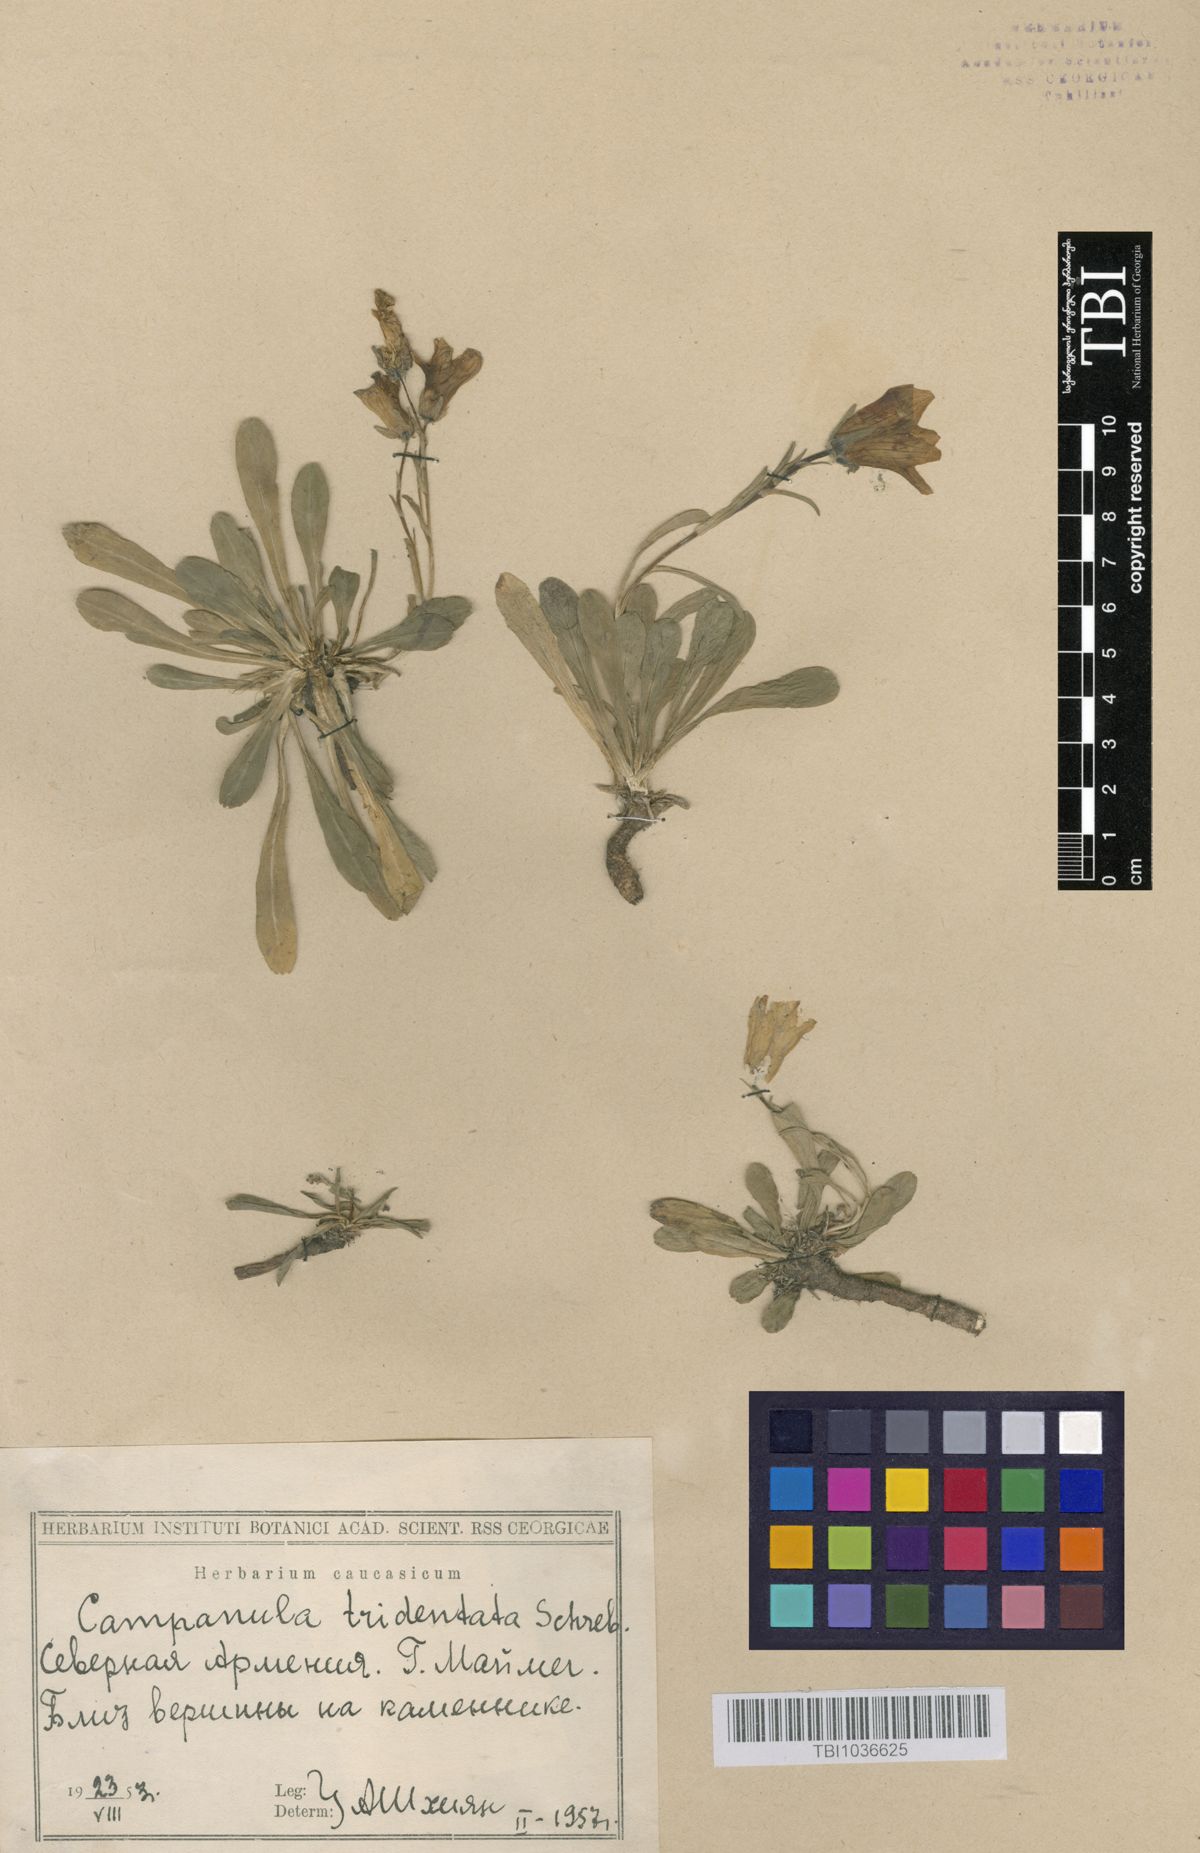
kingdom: Plantae
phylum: Tracheophyta
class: Magnoliopsida
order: Asterales
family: Campanulaceae
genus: Campanula
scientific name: Campanula tridentata
